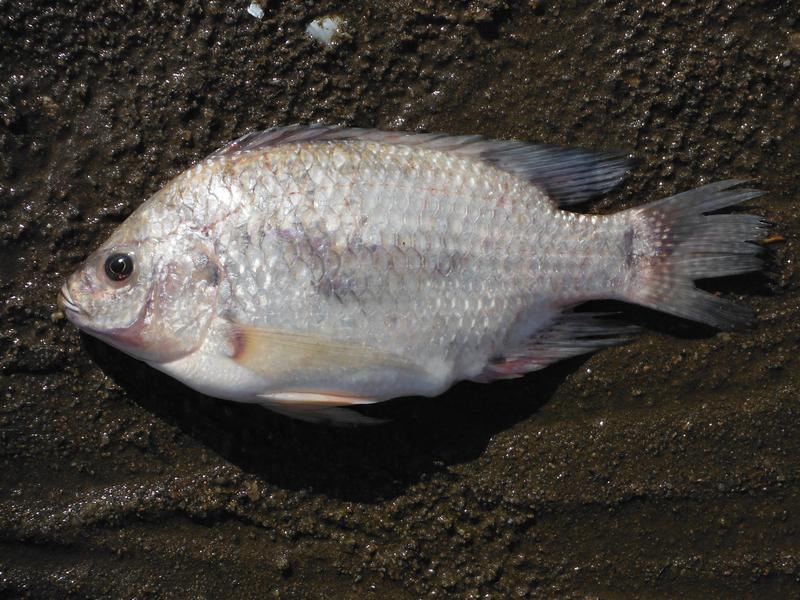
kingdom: Animalia
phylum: Chordata
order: Perciformes
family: Cichlidae
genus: Oreochromis
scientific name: Oreochromis rukwaensis
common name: Lake rukwa tilapia
